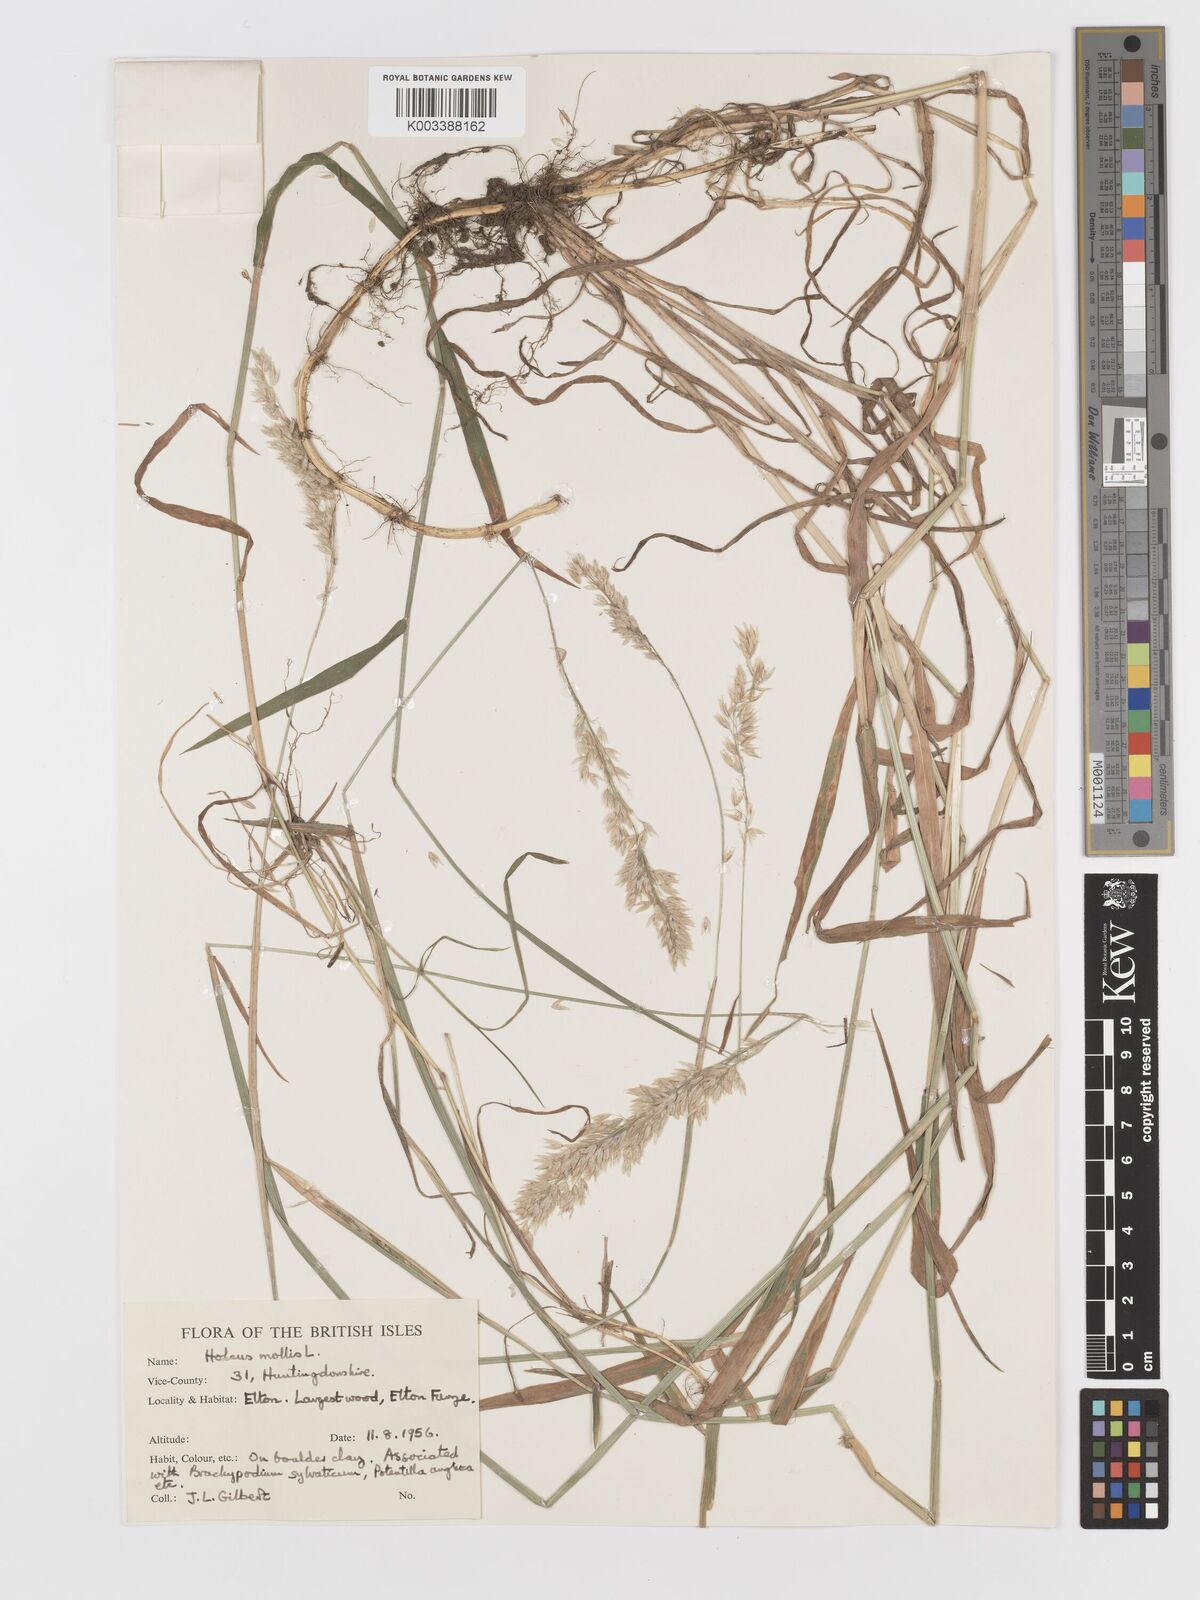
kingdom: Plantae
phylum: Tracheophyta
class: Liliopsida
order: Poales
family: Poaceae
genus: Holcus
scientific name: Holcus mollis
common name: Creeping velvetgrass
